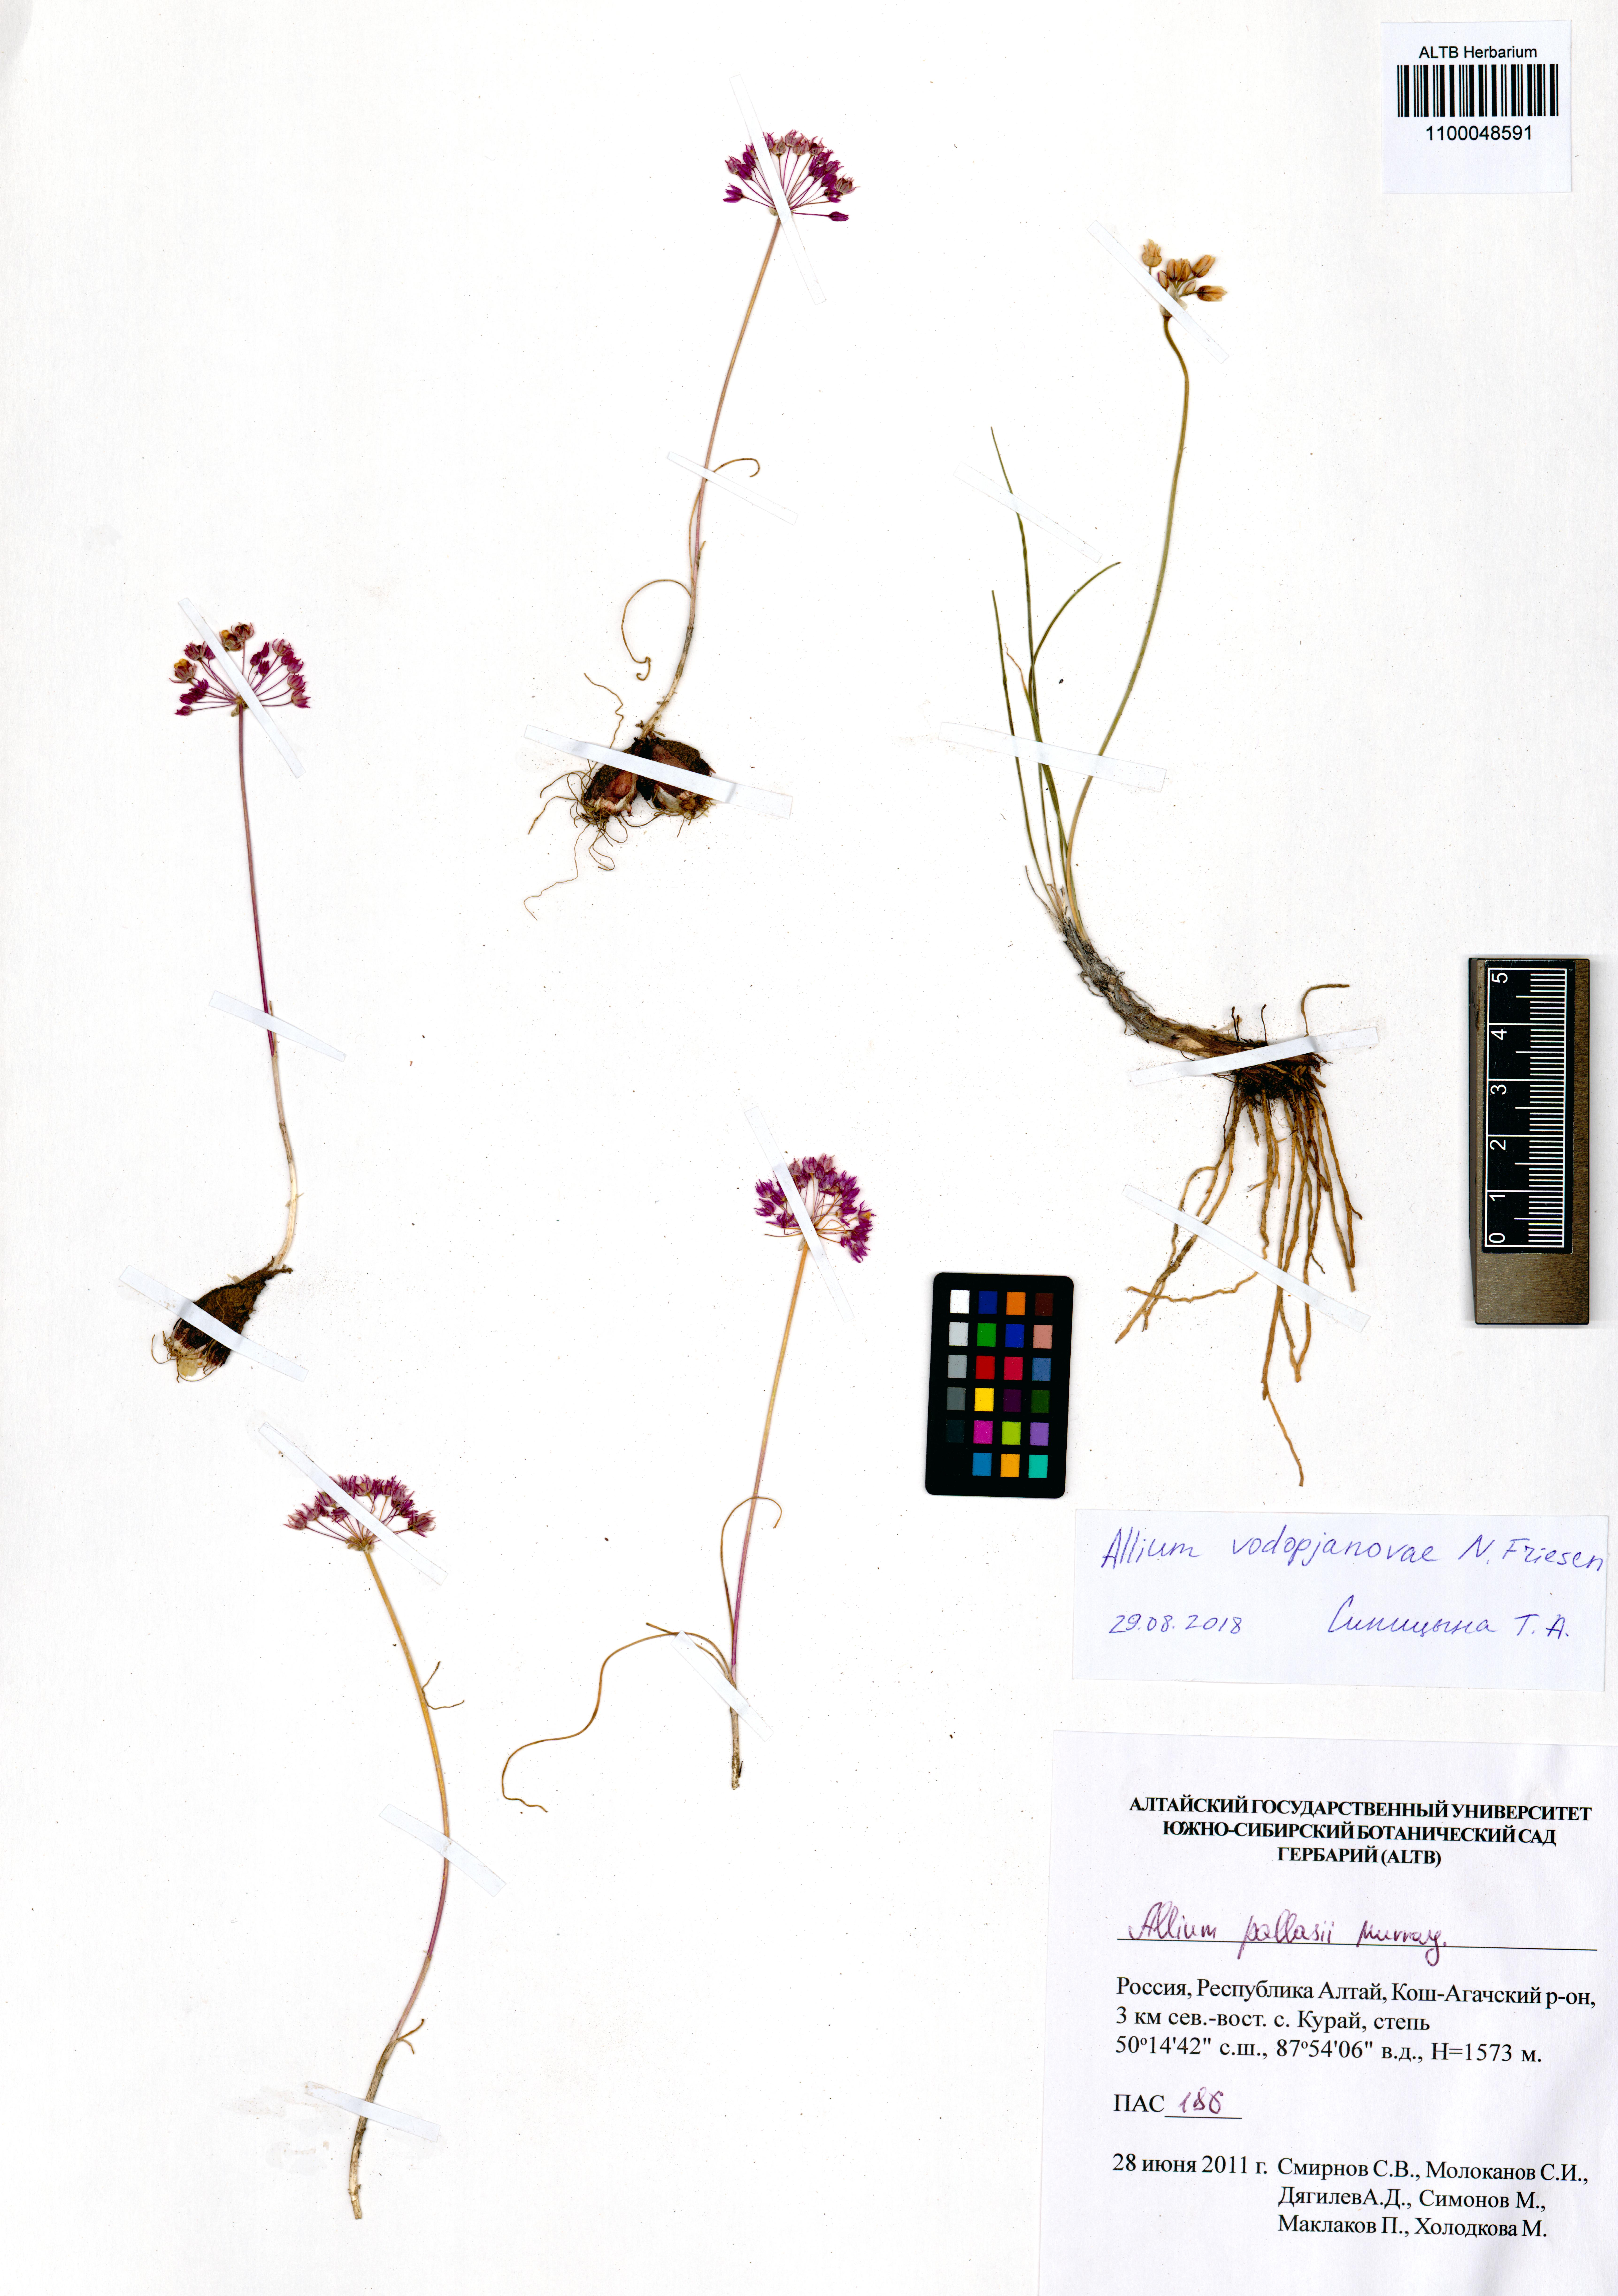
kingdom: Plantae
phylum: Tracheophyta
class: Liliopsida
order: Asparagales
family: Amaryllidaceae
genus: Allium
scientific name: Allium vodopjanovae
